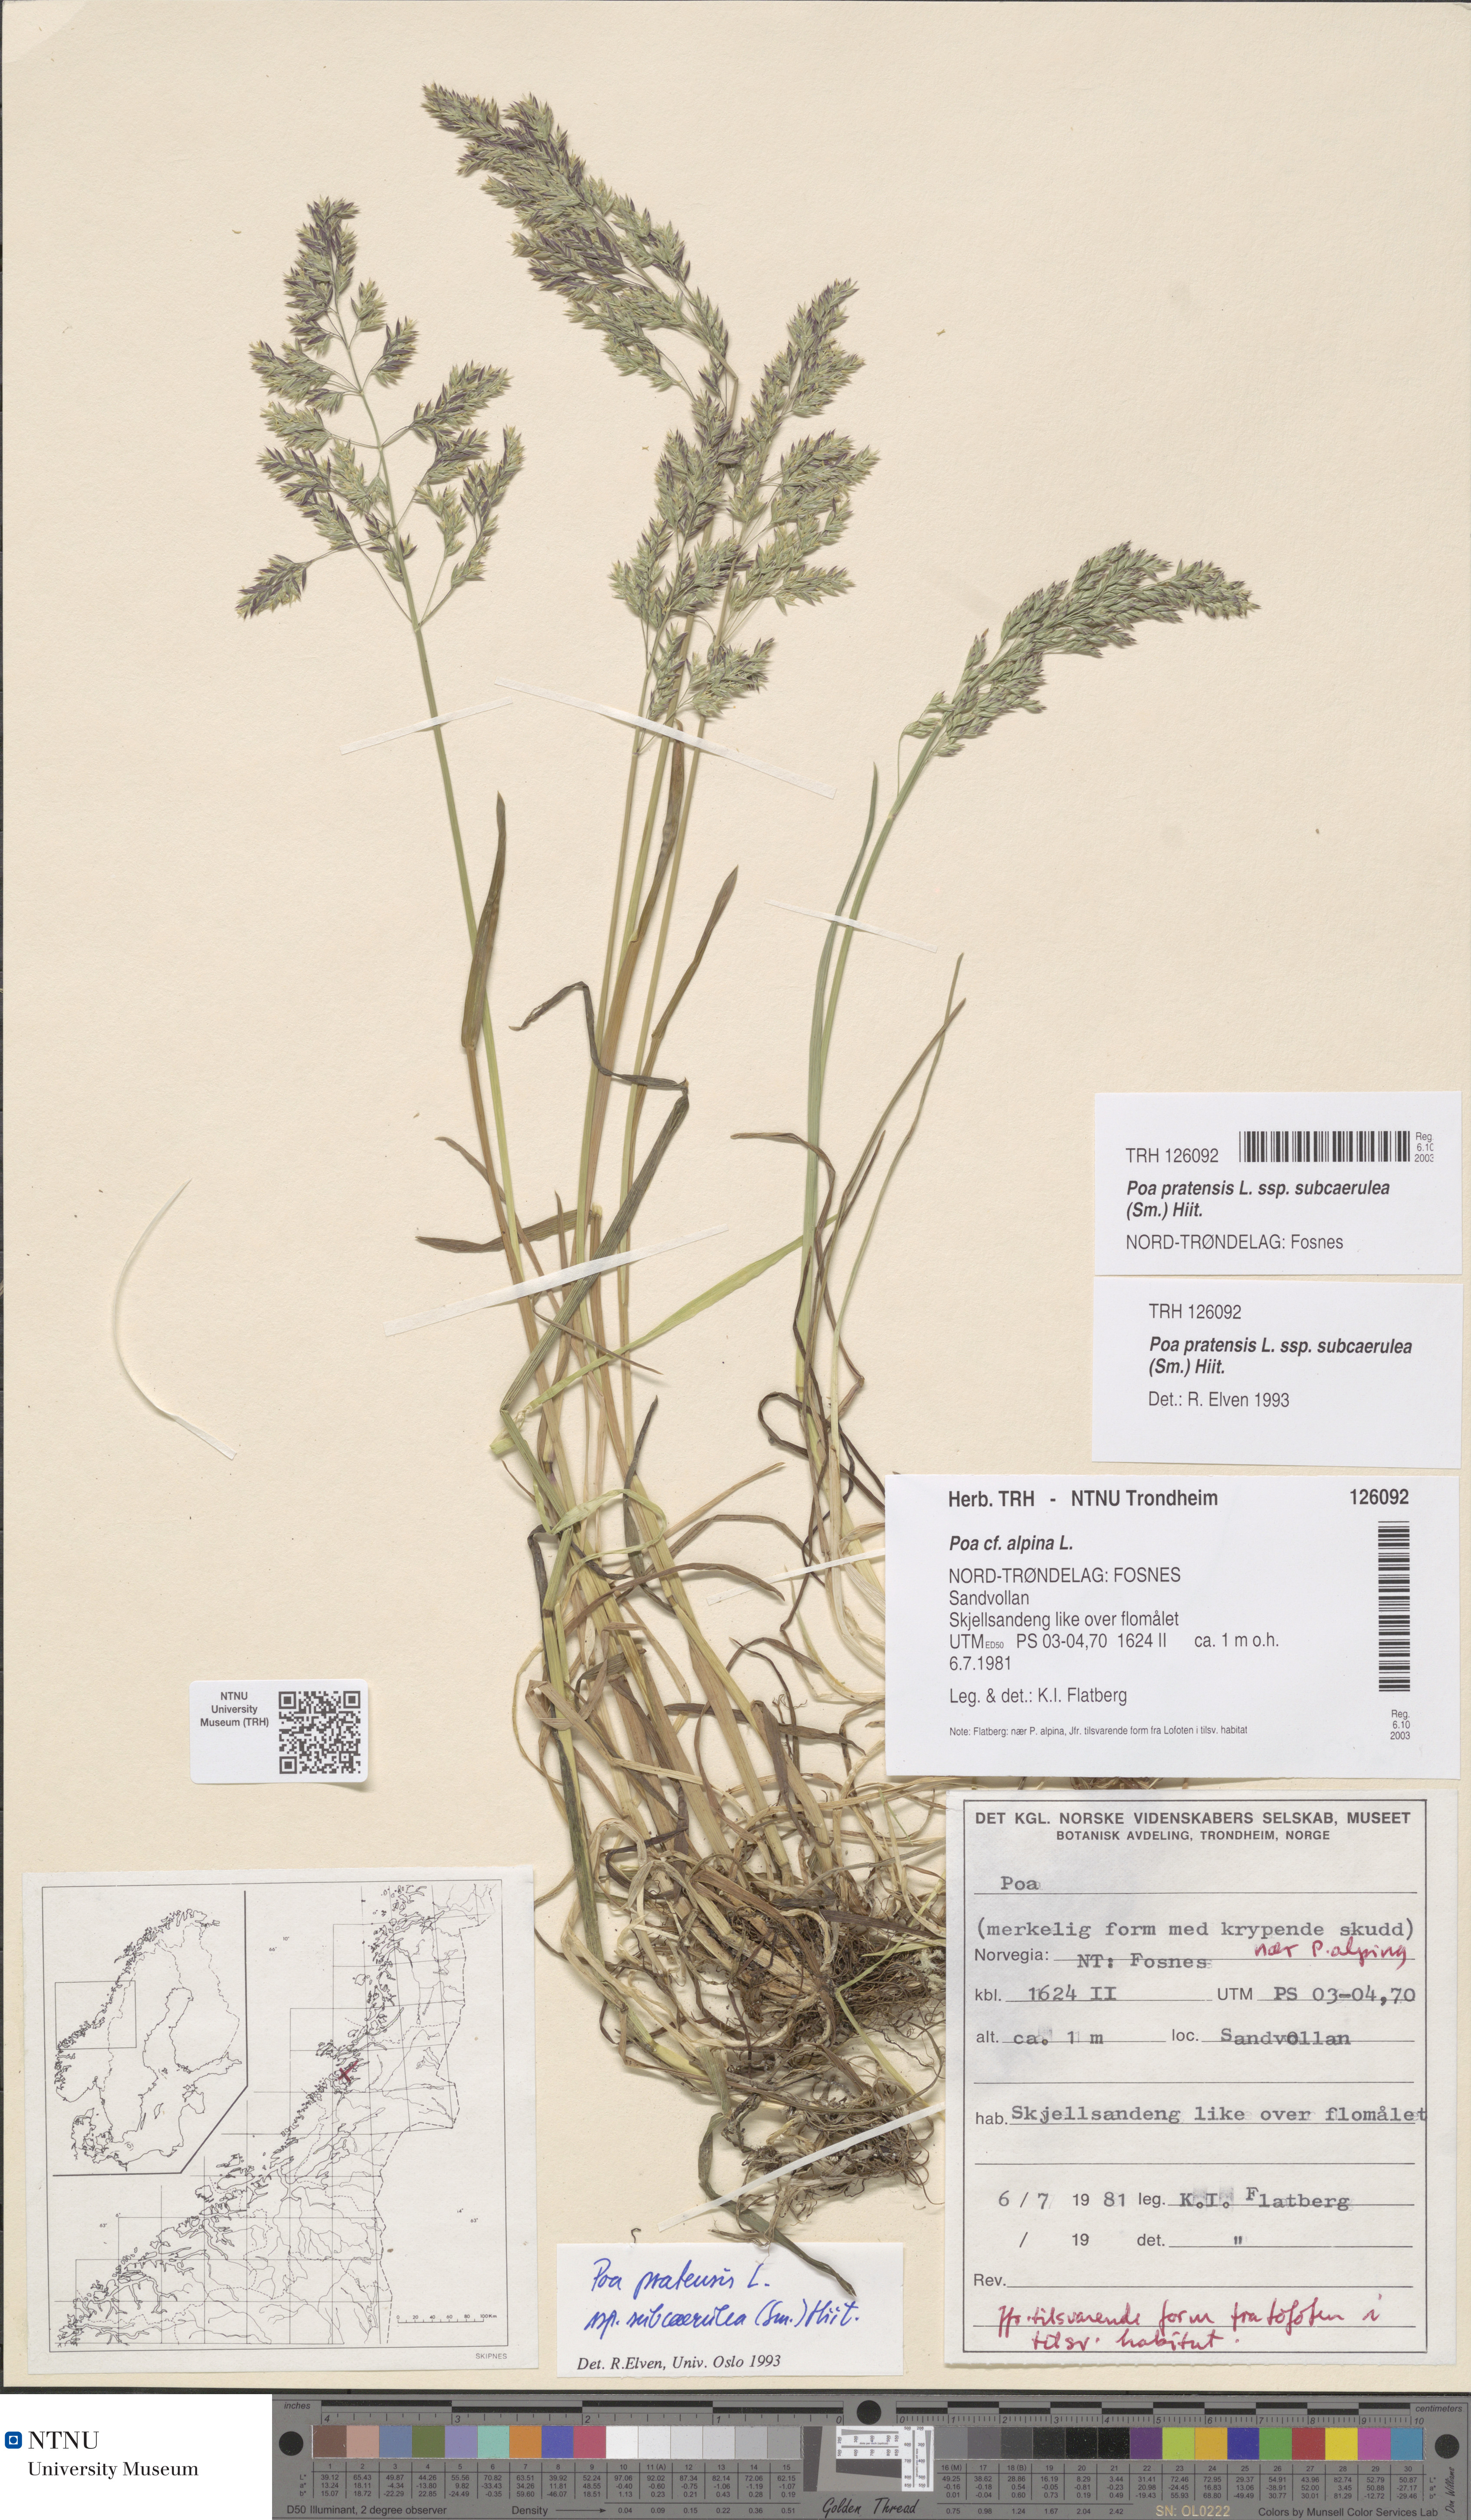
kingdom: Plantae
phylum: Tracheophyta
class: Liliopsida
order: Poales
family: Poaceae
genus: Poa
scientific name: Poa humilis
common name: Spreading meadow-grass
